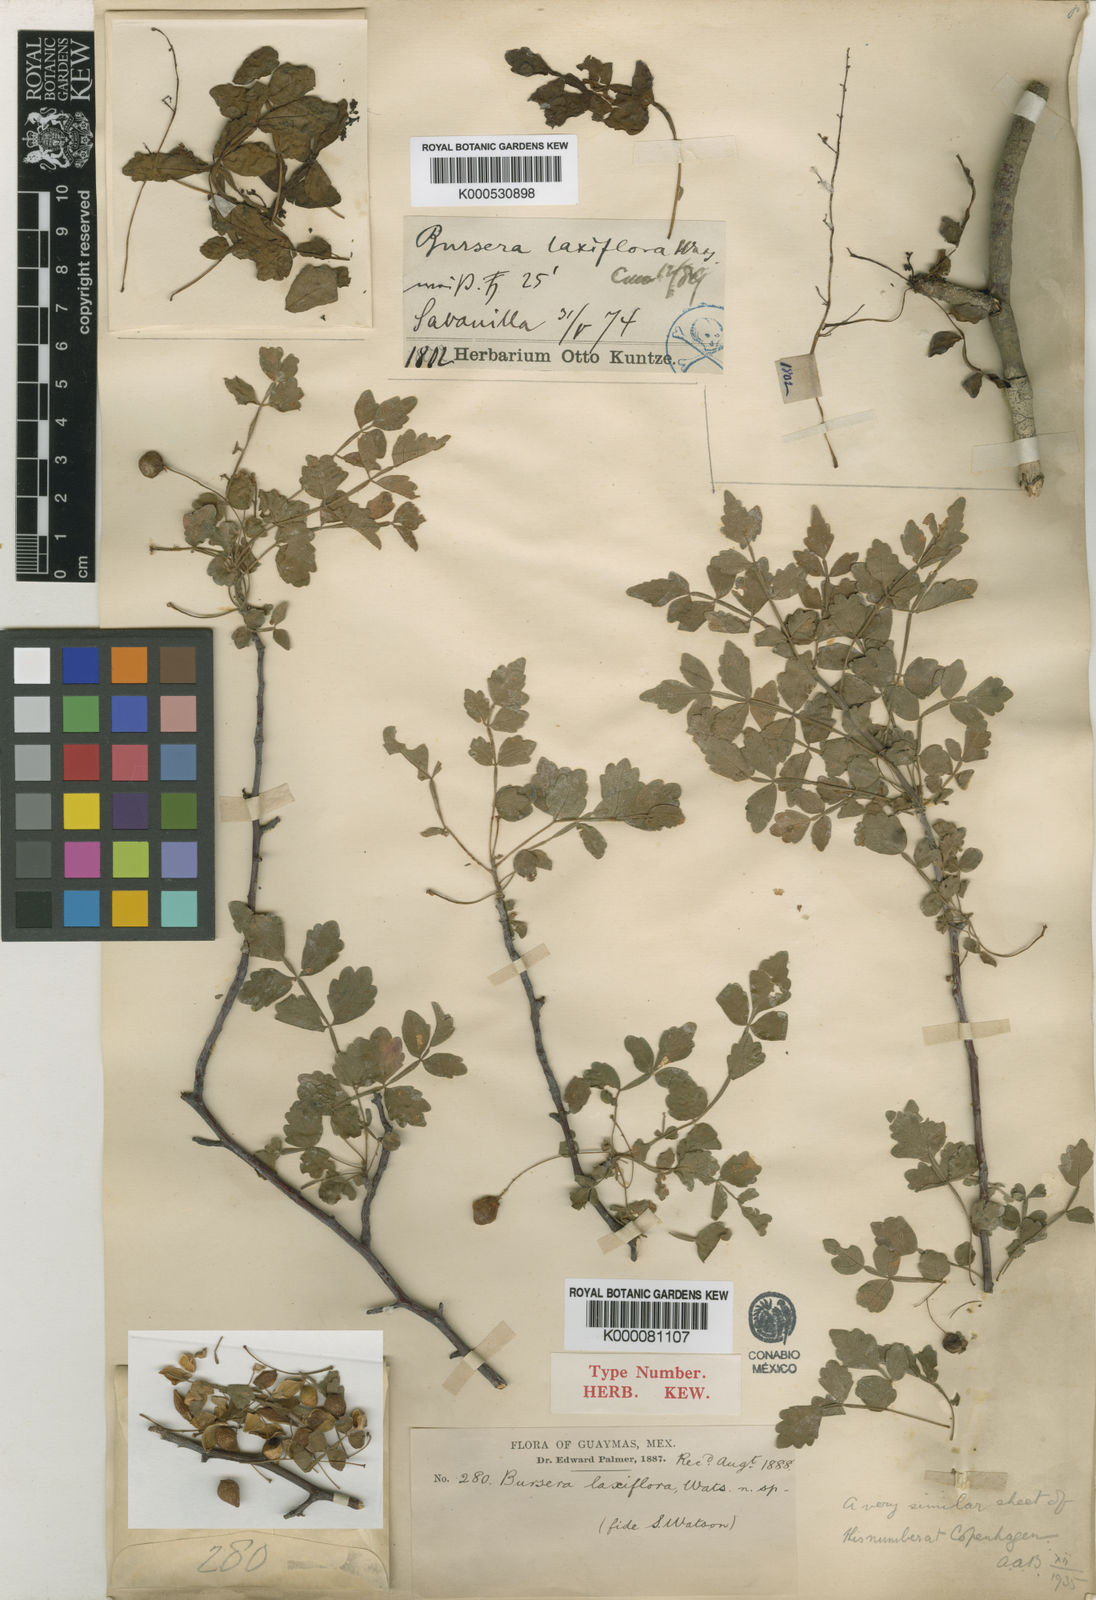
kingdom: Plantae
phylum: Tracheophyta
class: Magnoliopsida
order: Sapindales
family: Burseraceae
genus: Bursera
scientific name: Bursera laxiflora
